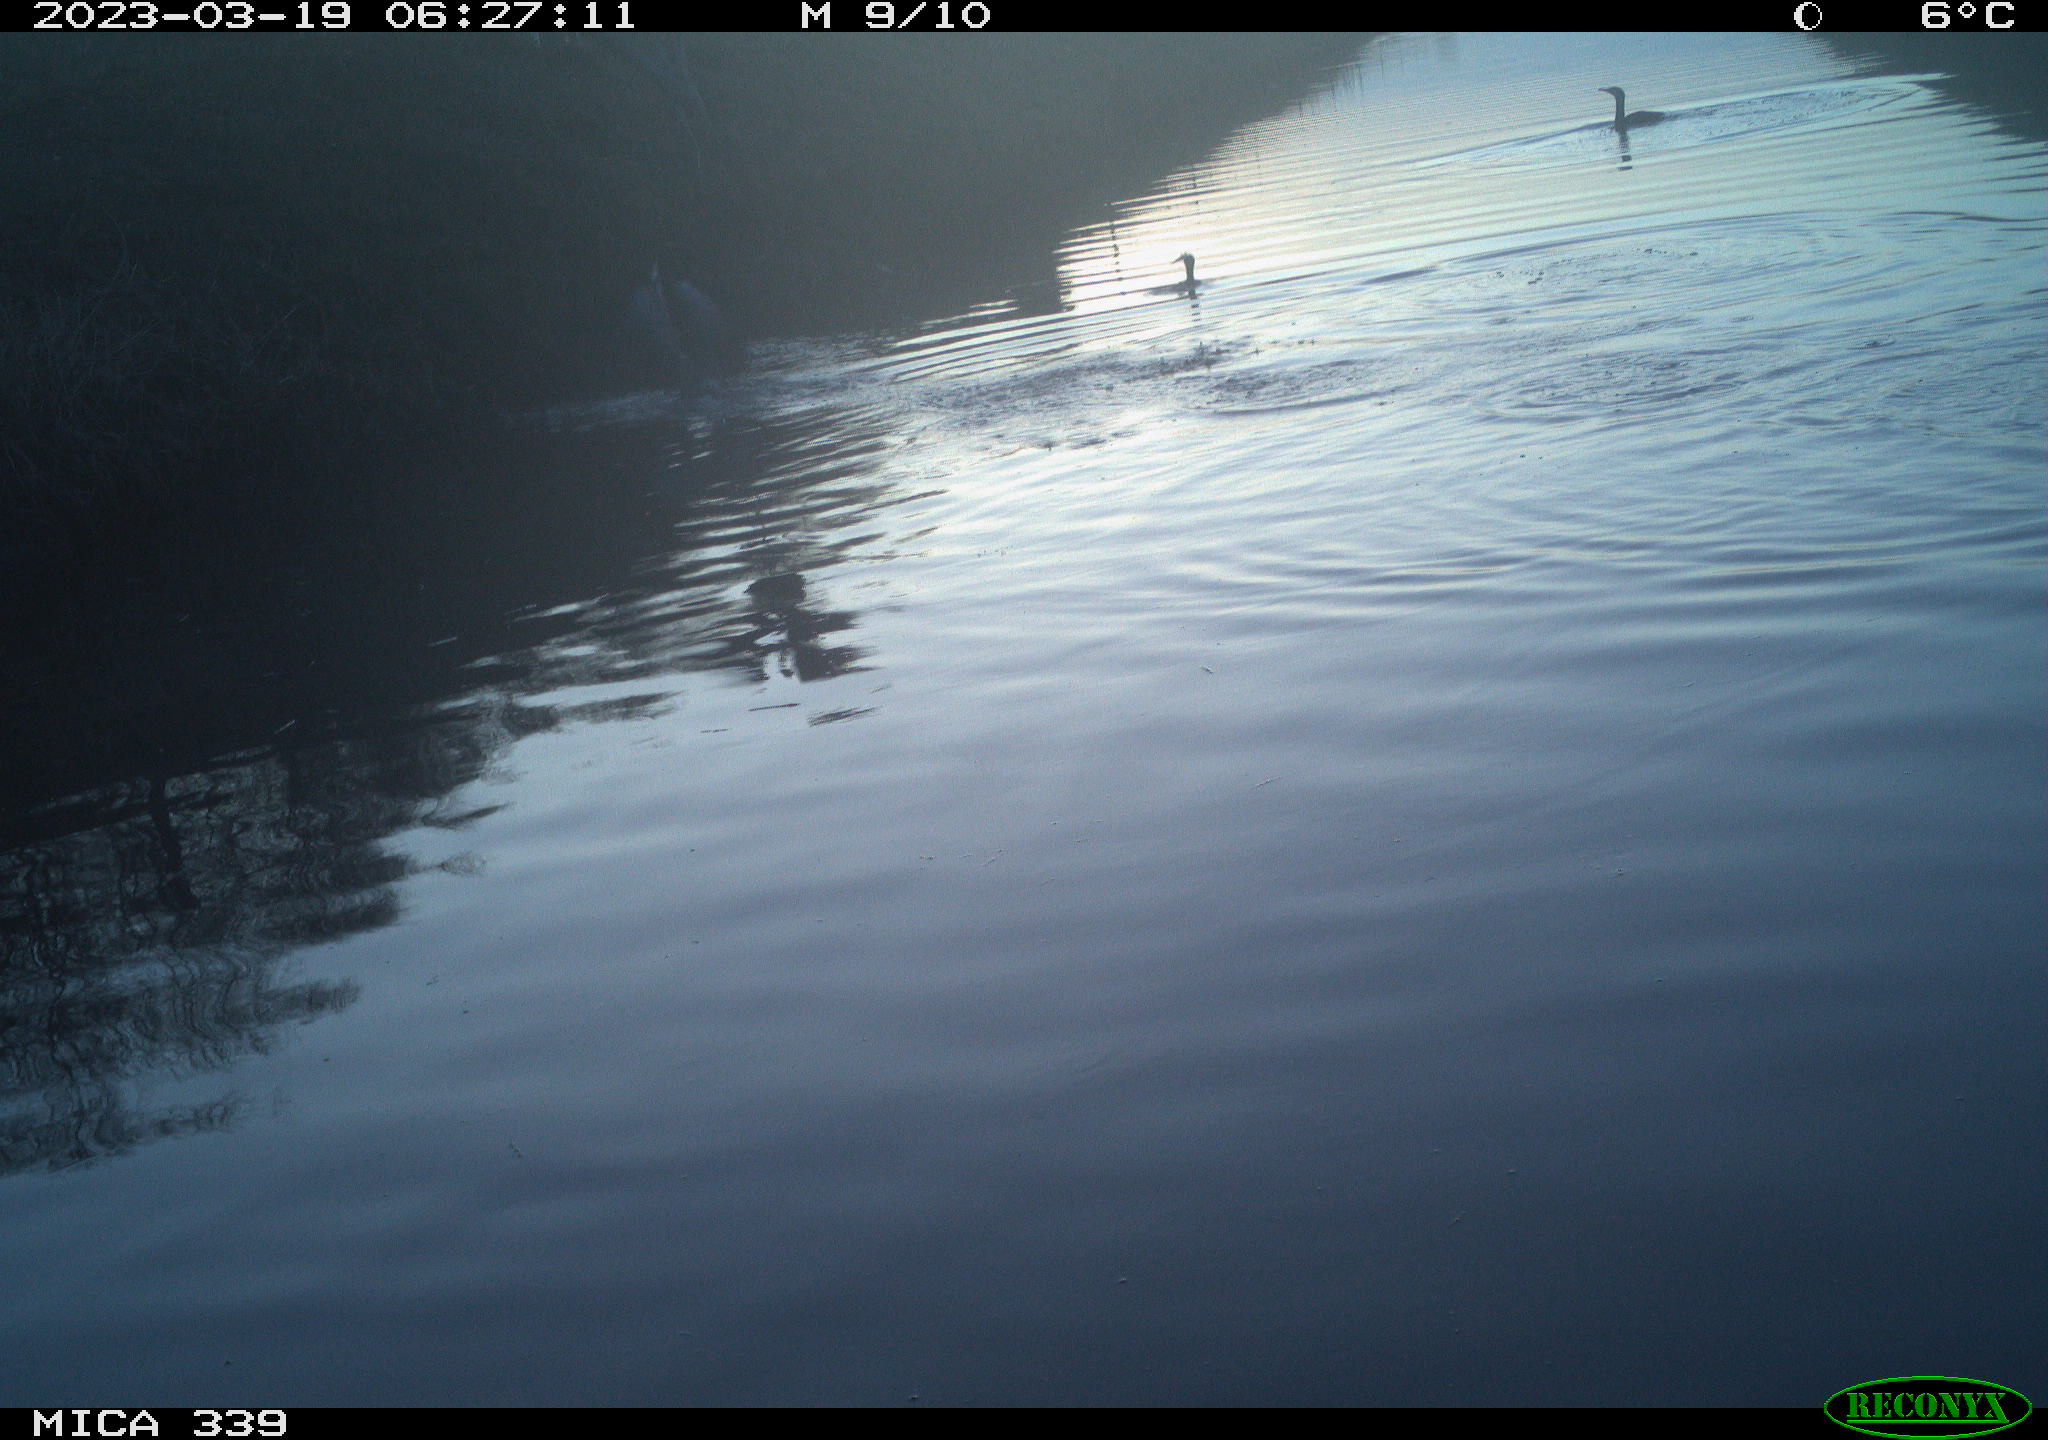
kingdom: Animalia
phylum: Chordata
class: Aves
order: Pelecaniformes
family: Ardeidae
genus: Ardea
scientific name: Ardea cinerea
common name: Grey heron
